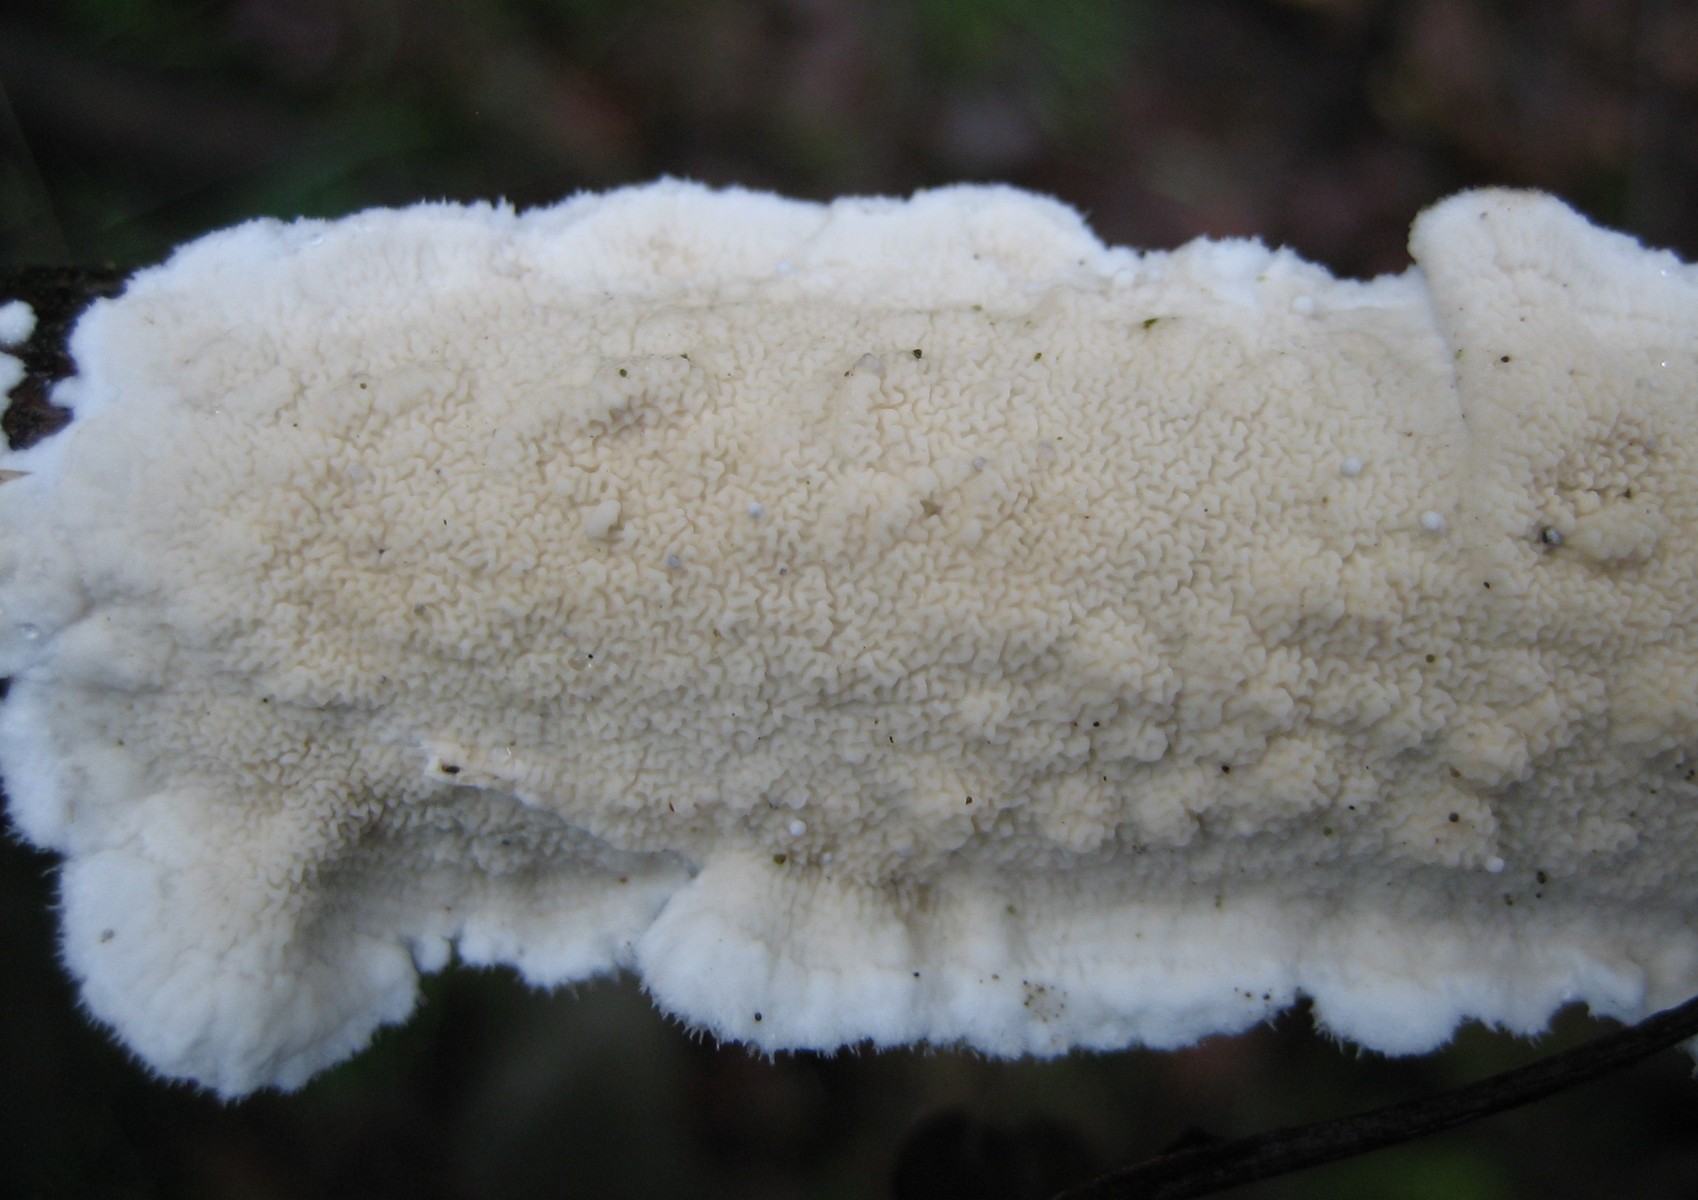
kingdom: Fungi
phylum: Basidiomycota
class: Agaricomycetes
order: Polyporales
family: Irpicaceae
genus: Byssomerulius
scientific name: Byssomerulius corium
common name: læder-åresvamp
